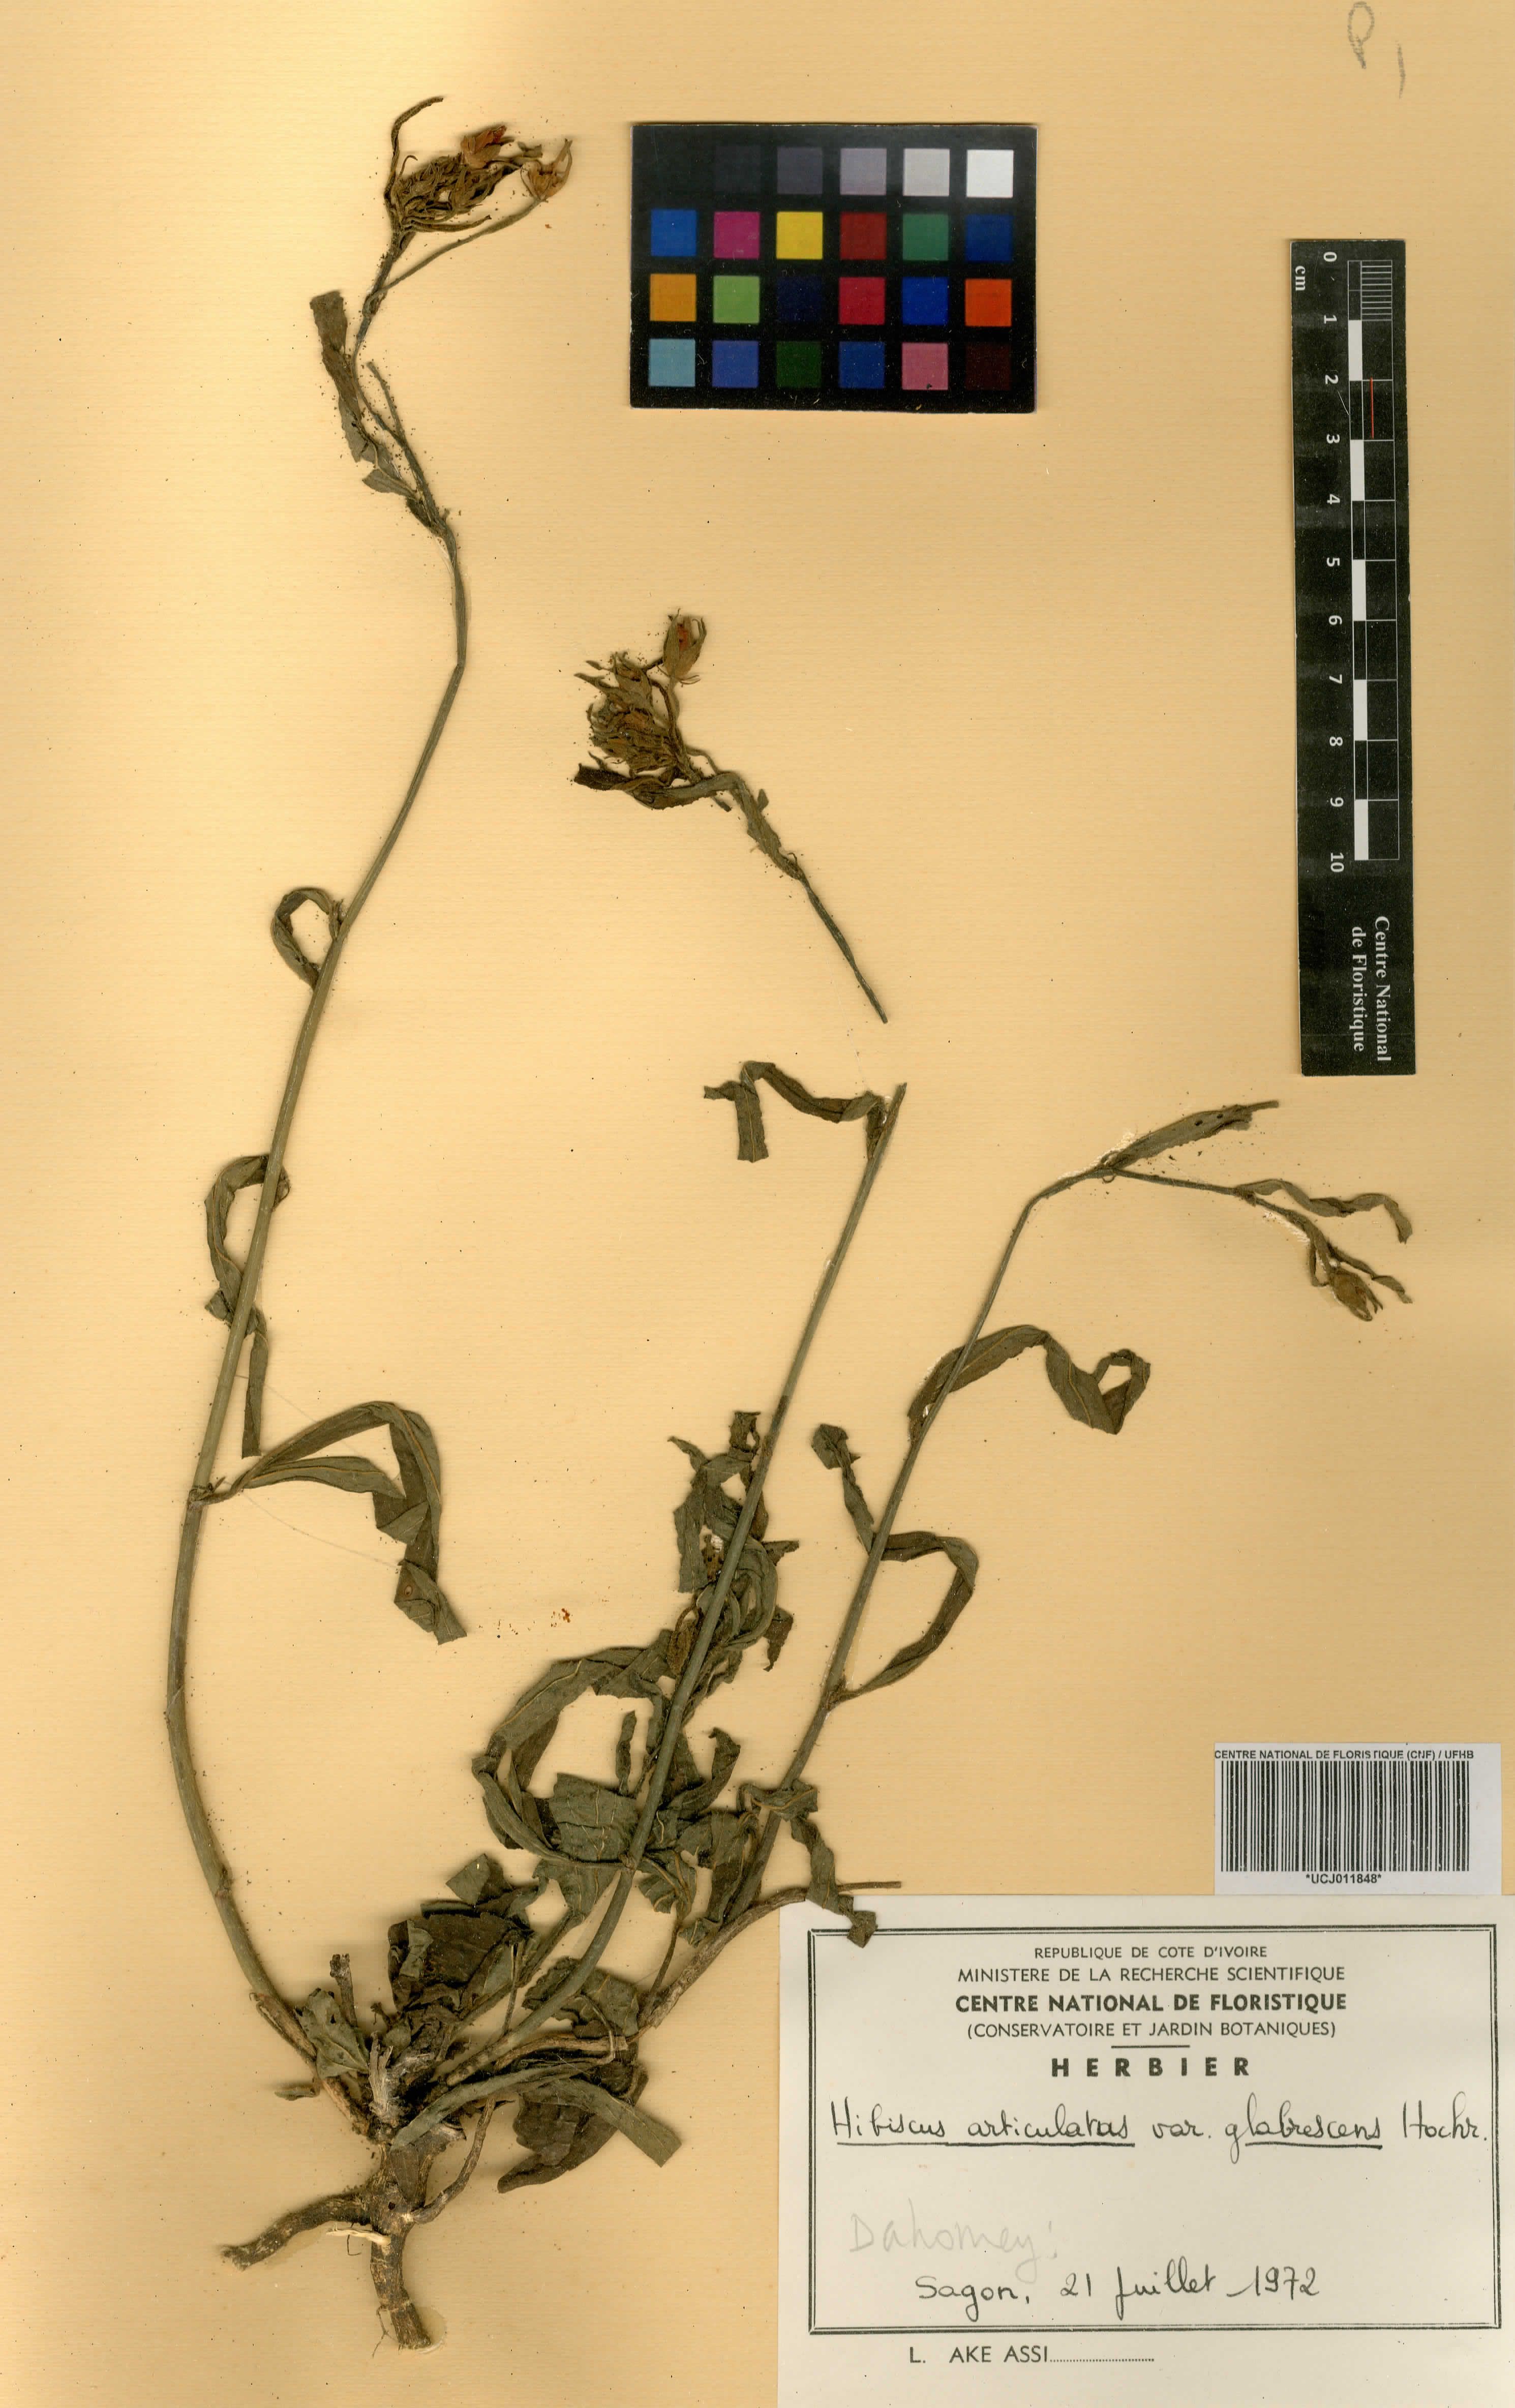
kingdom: Plantae
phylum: Tracheophyta
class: Magnoliopsida
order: Malvales
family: Malvaceae
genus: Hibiscus
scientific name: Hibiscus articulatus
